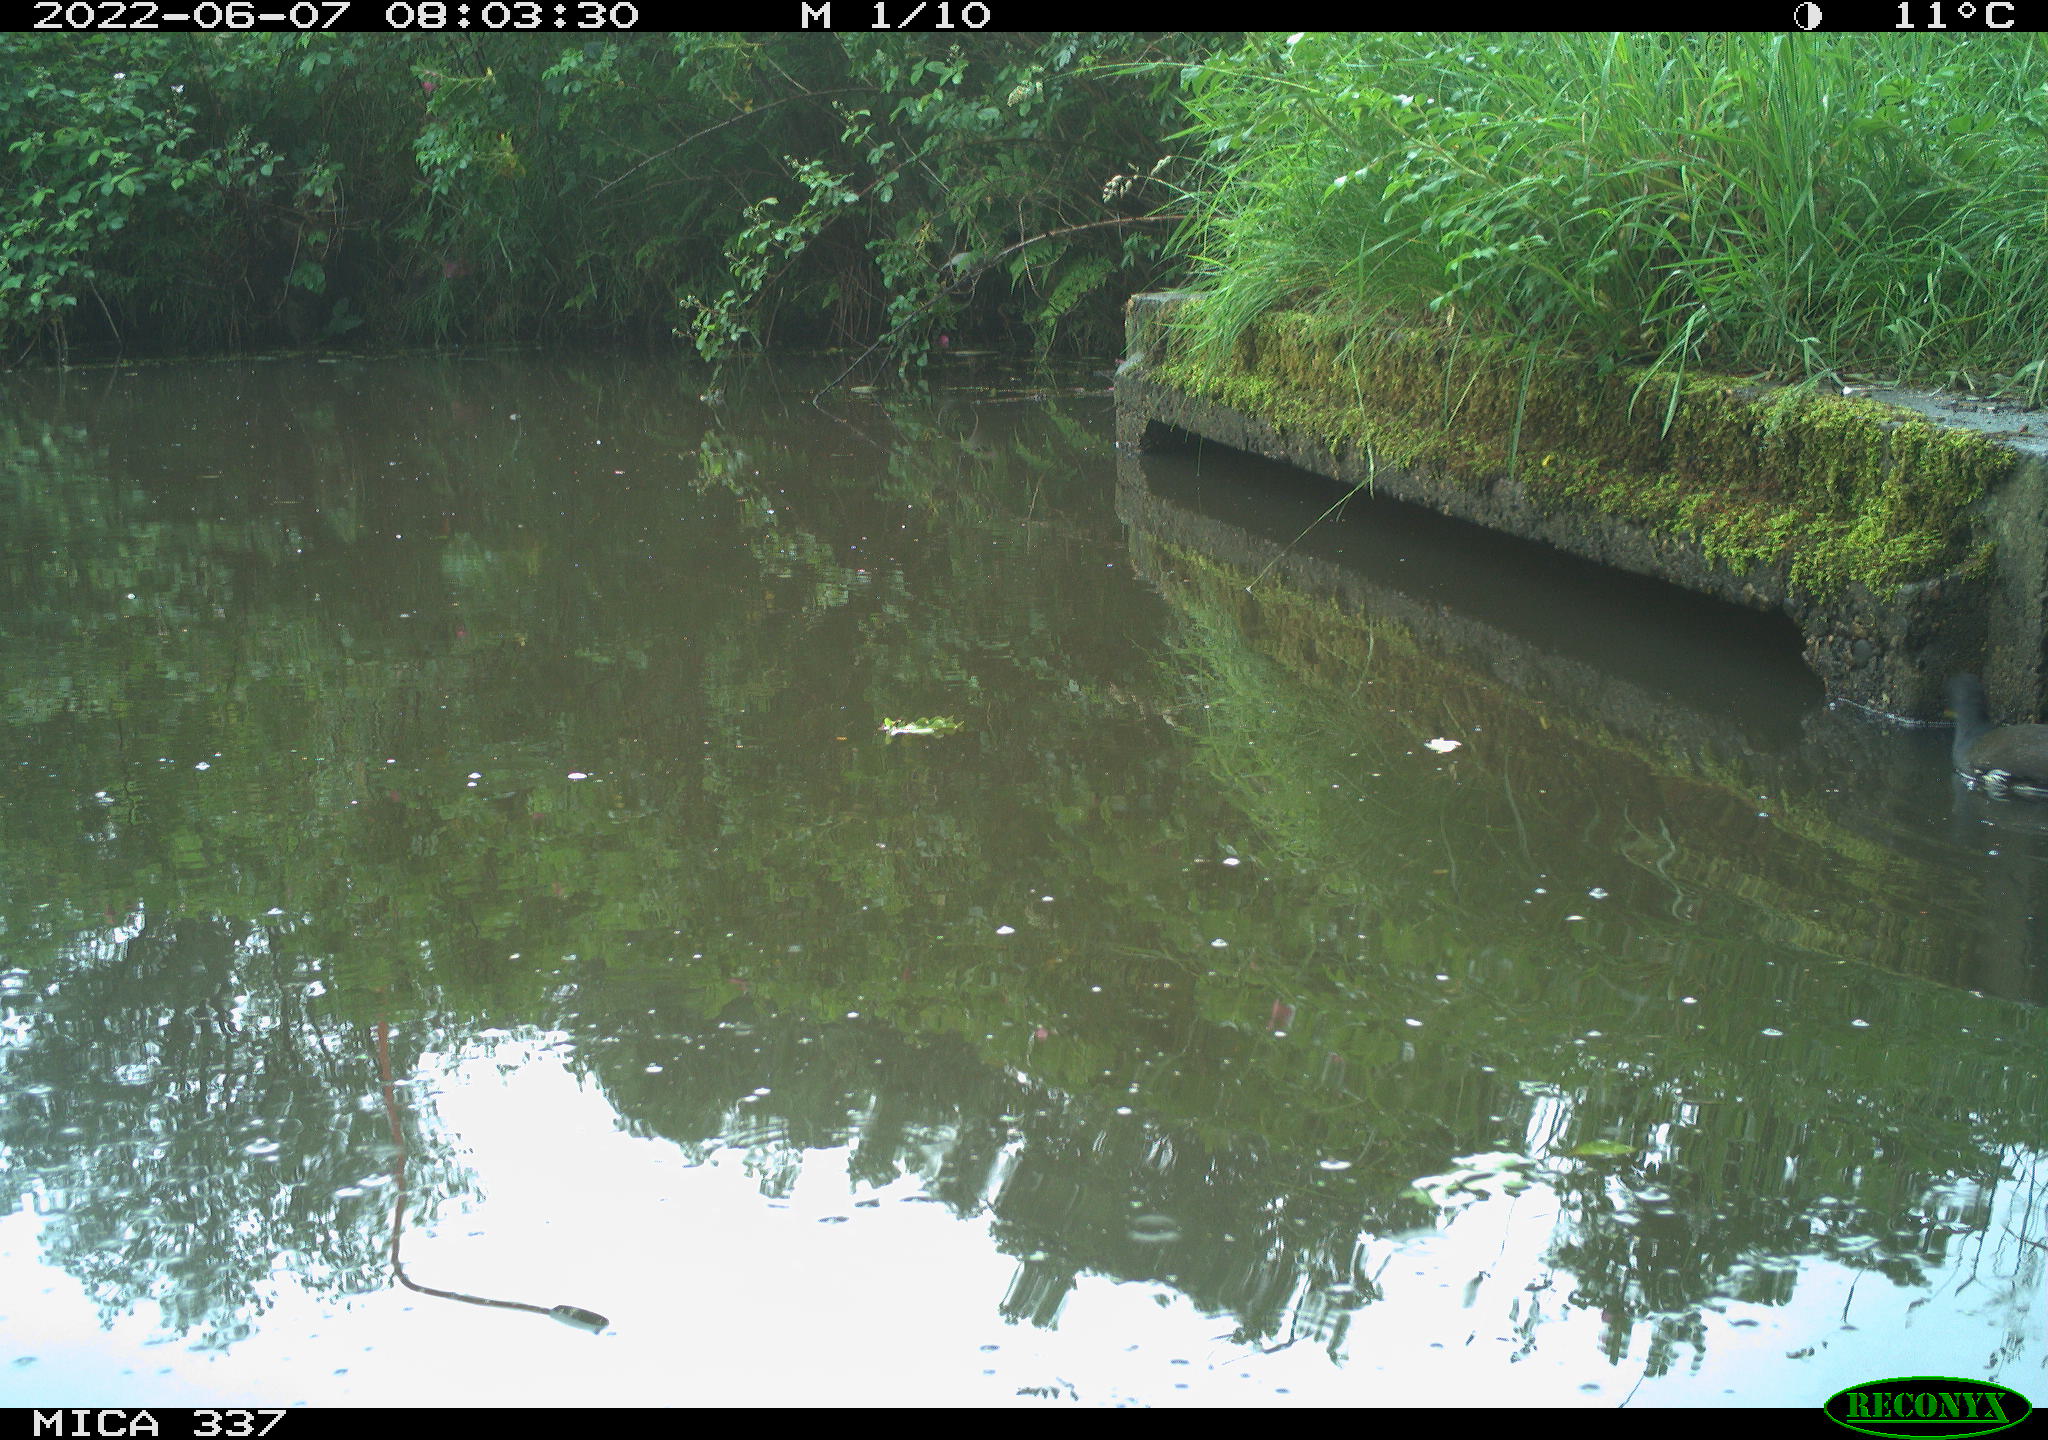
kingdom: Animalia
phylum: Chordata
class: Aves
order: Gruiformes
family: Rallidae
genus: Gallinula
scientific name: Gallinula chloropus
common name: Common moorhen
